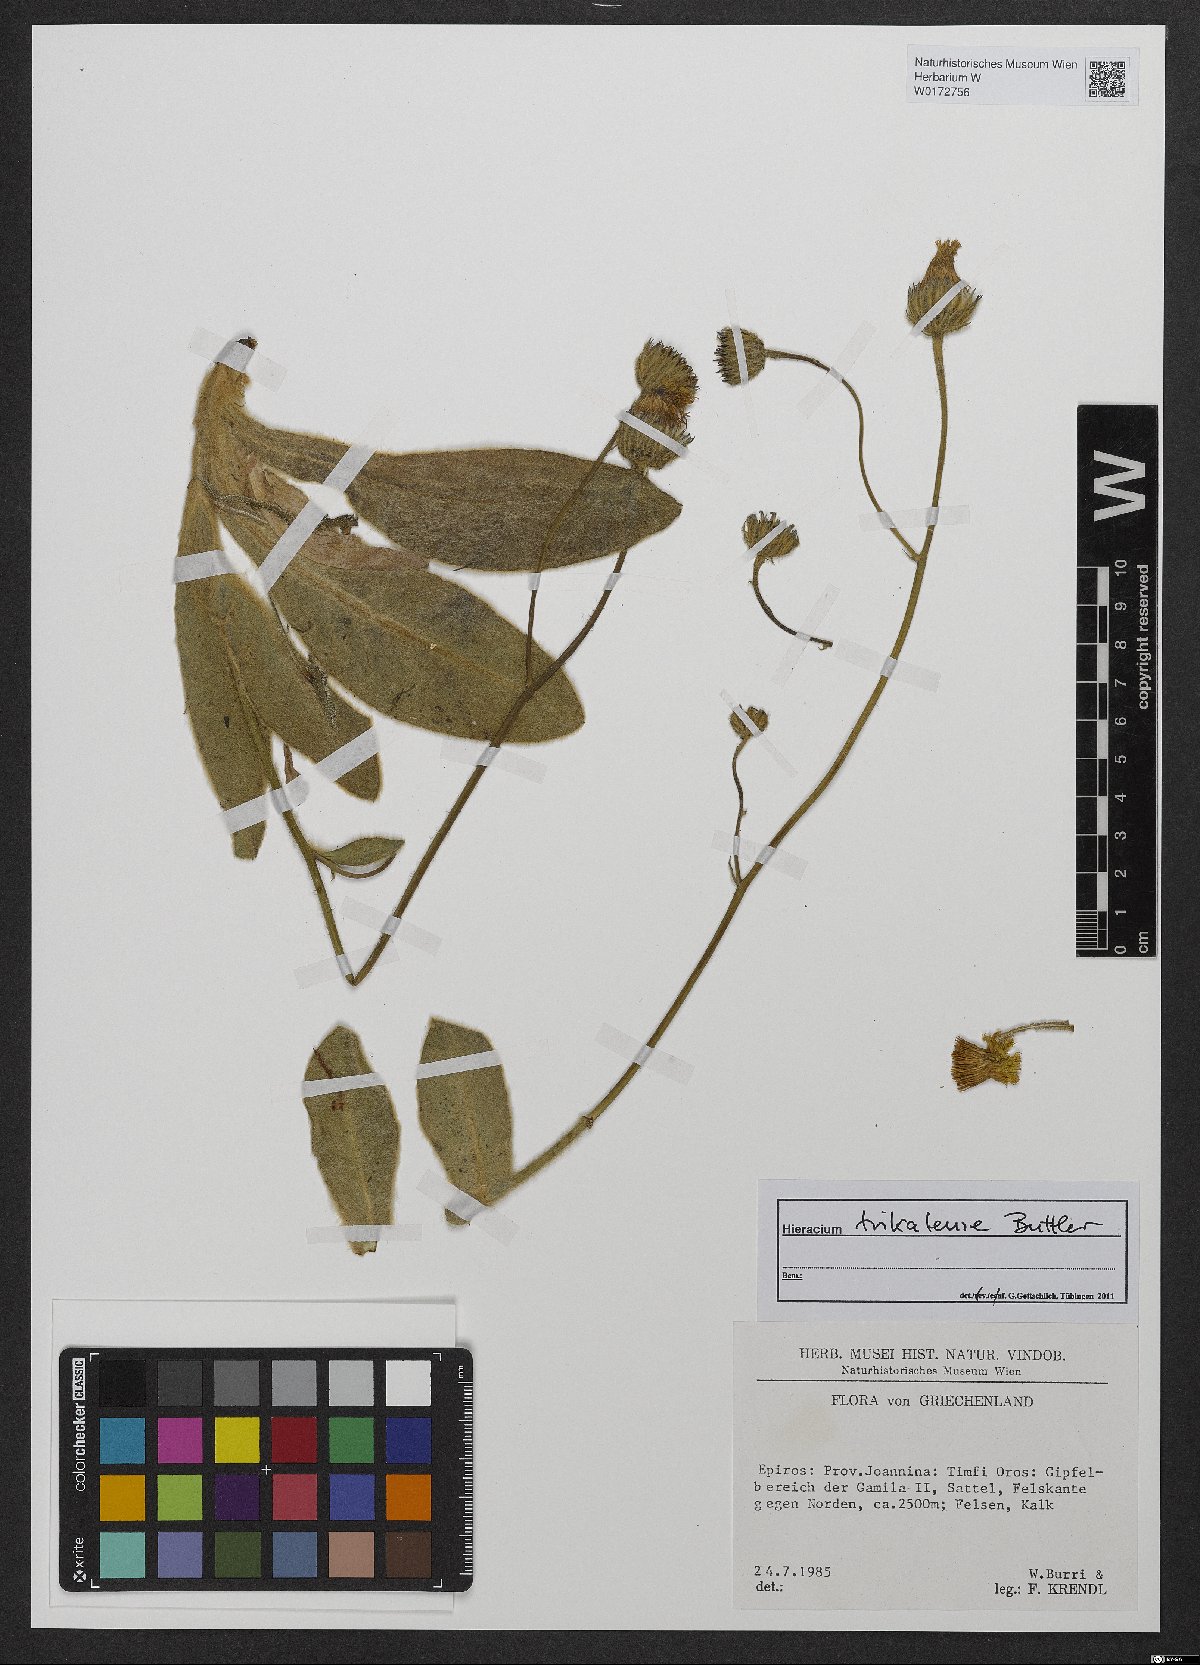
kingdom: Plantae
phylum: Tracheophyta
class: Magnoliopsida
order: Asterales
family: Asteraceae
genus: Hieracium
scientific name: Hieracium trikalense
